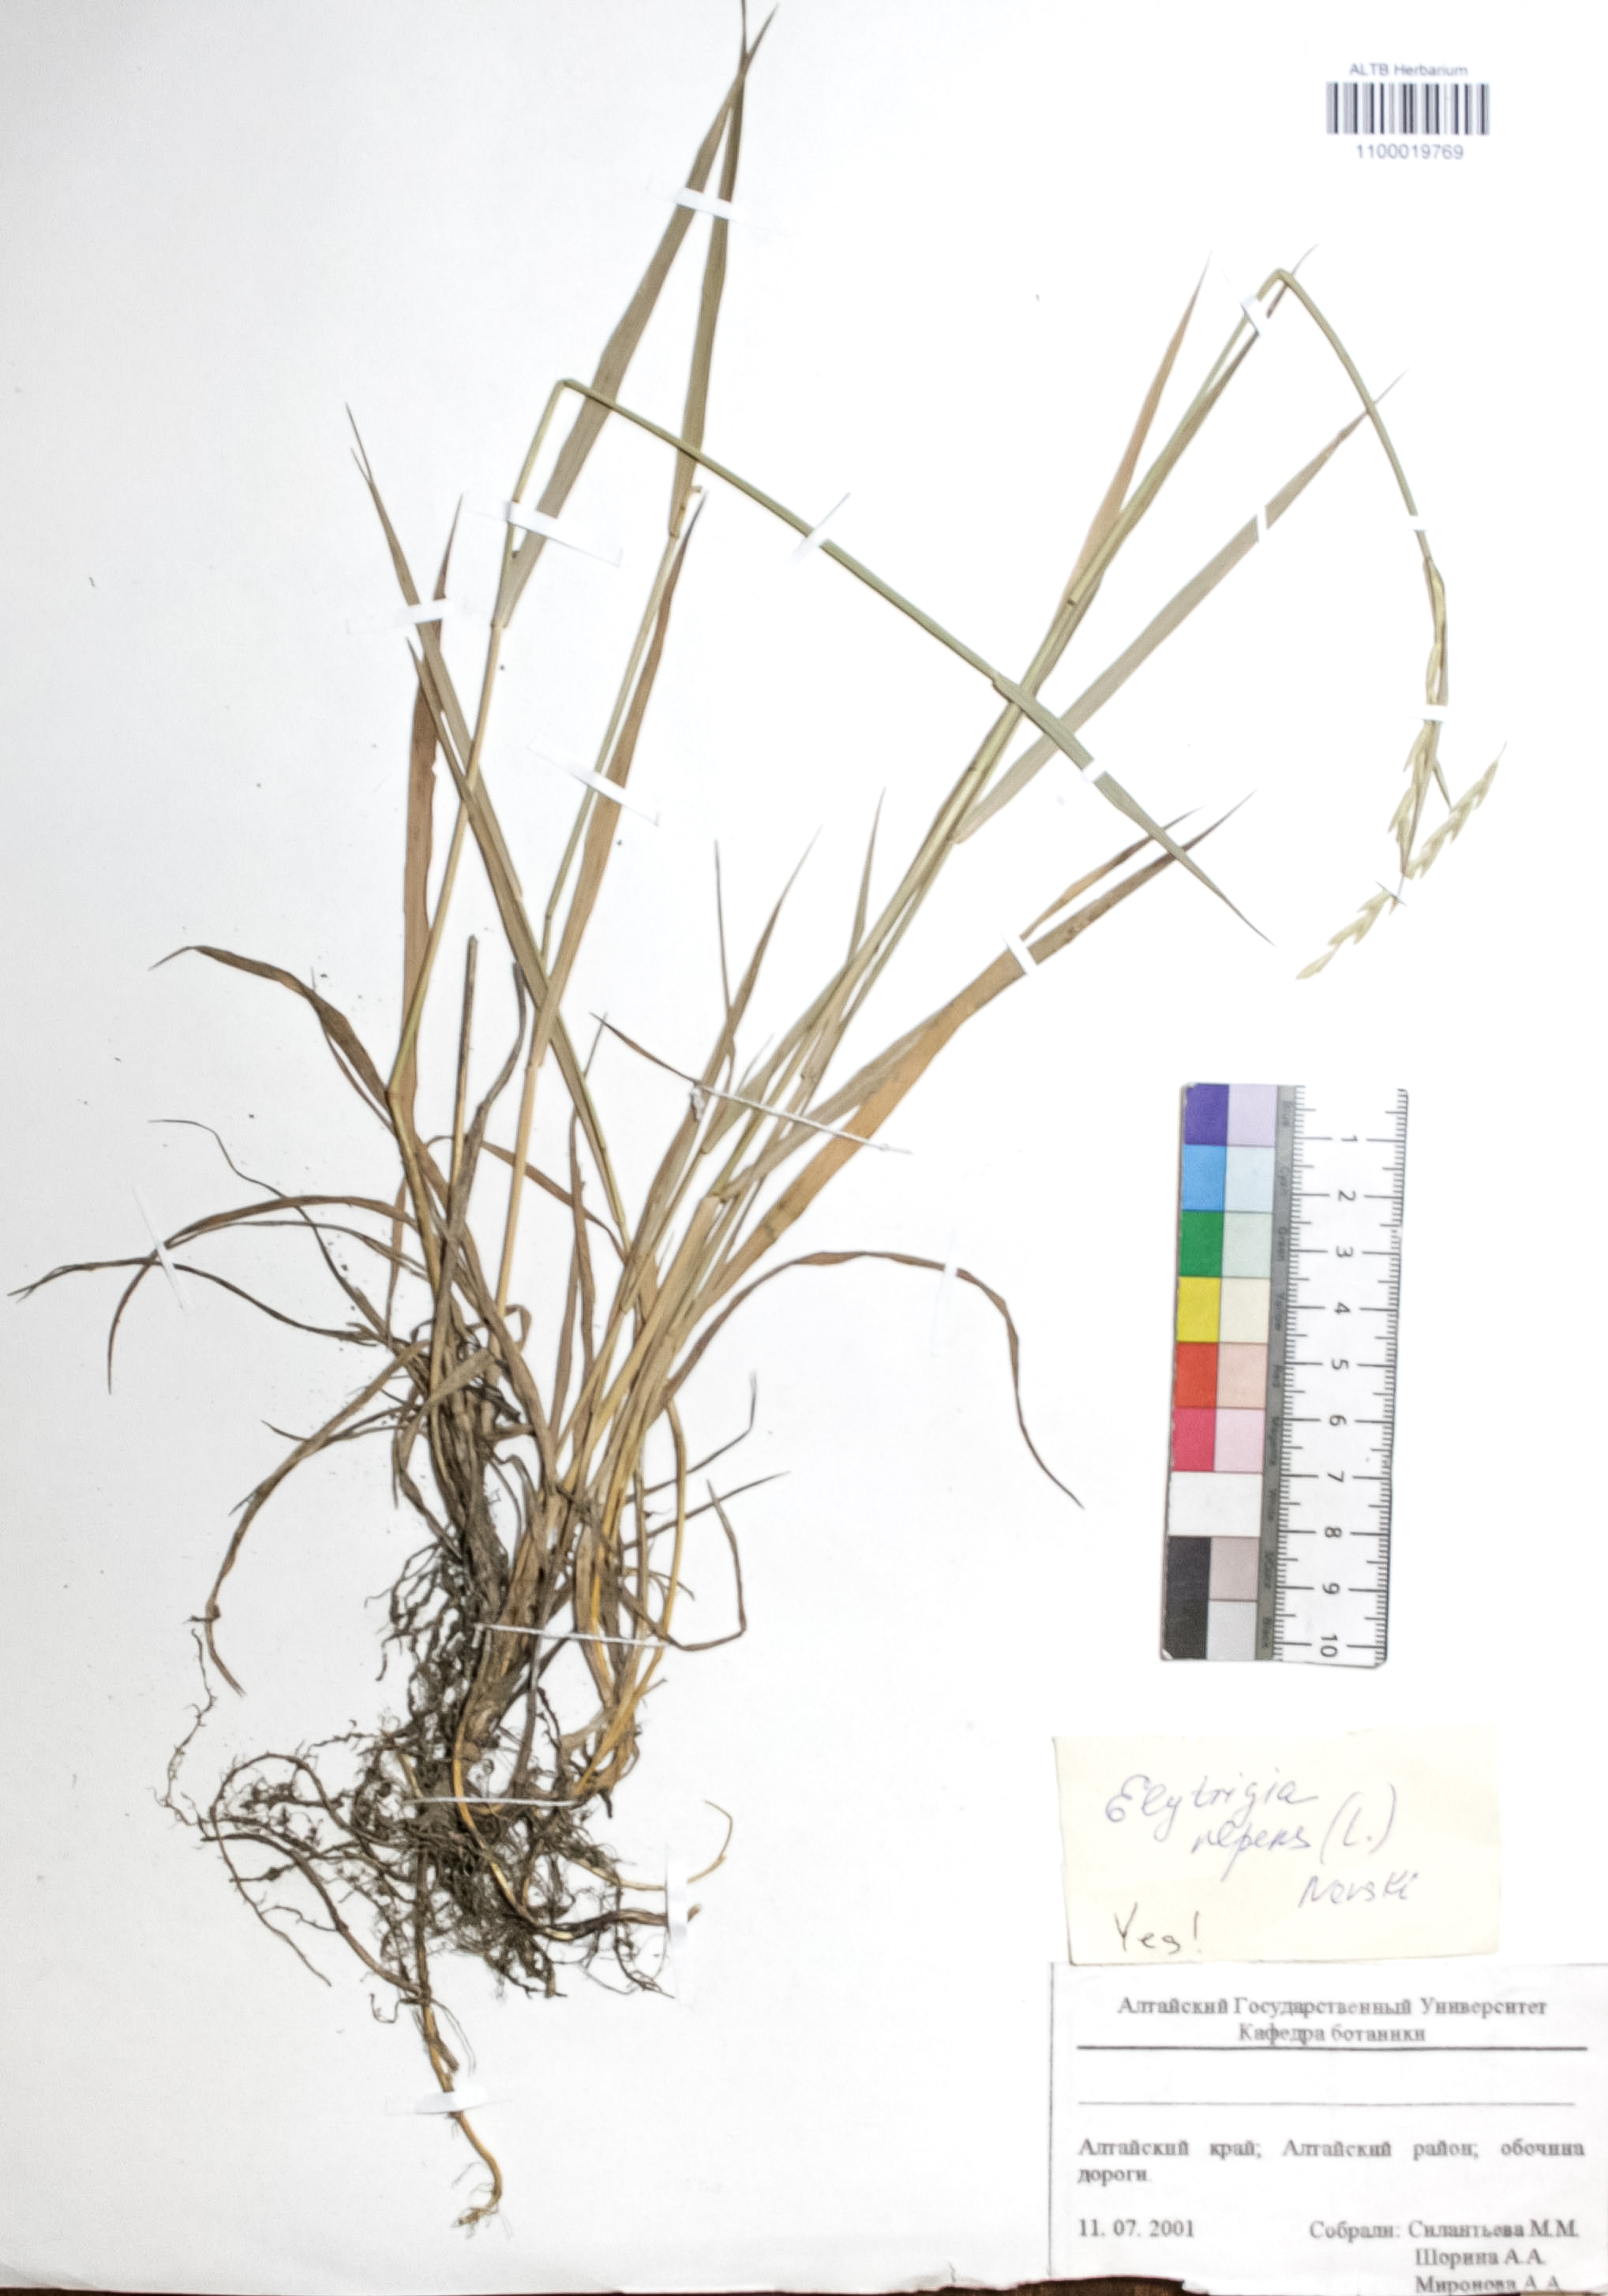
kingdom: Plantae
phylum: Tracheophyta
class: Liliopsida
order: Poales
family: Poaceae
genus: Elymus
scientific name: Elymus repens
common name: Quackgrass
